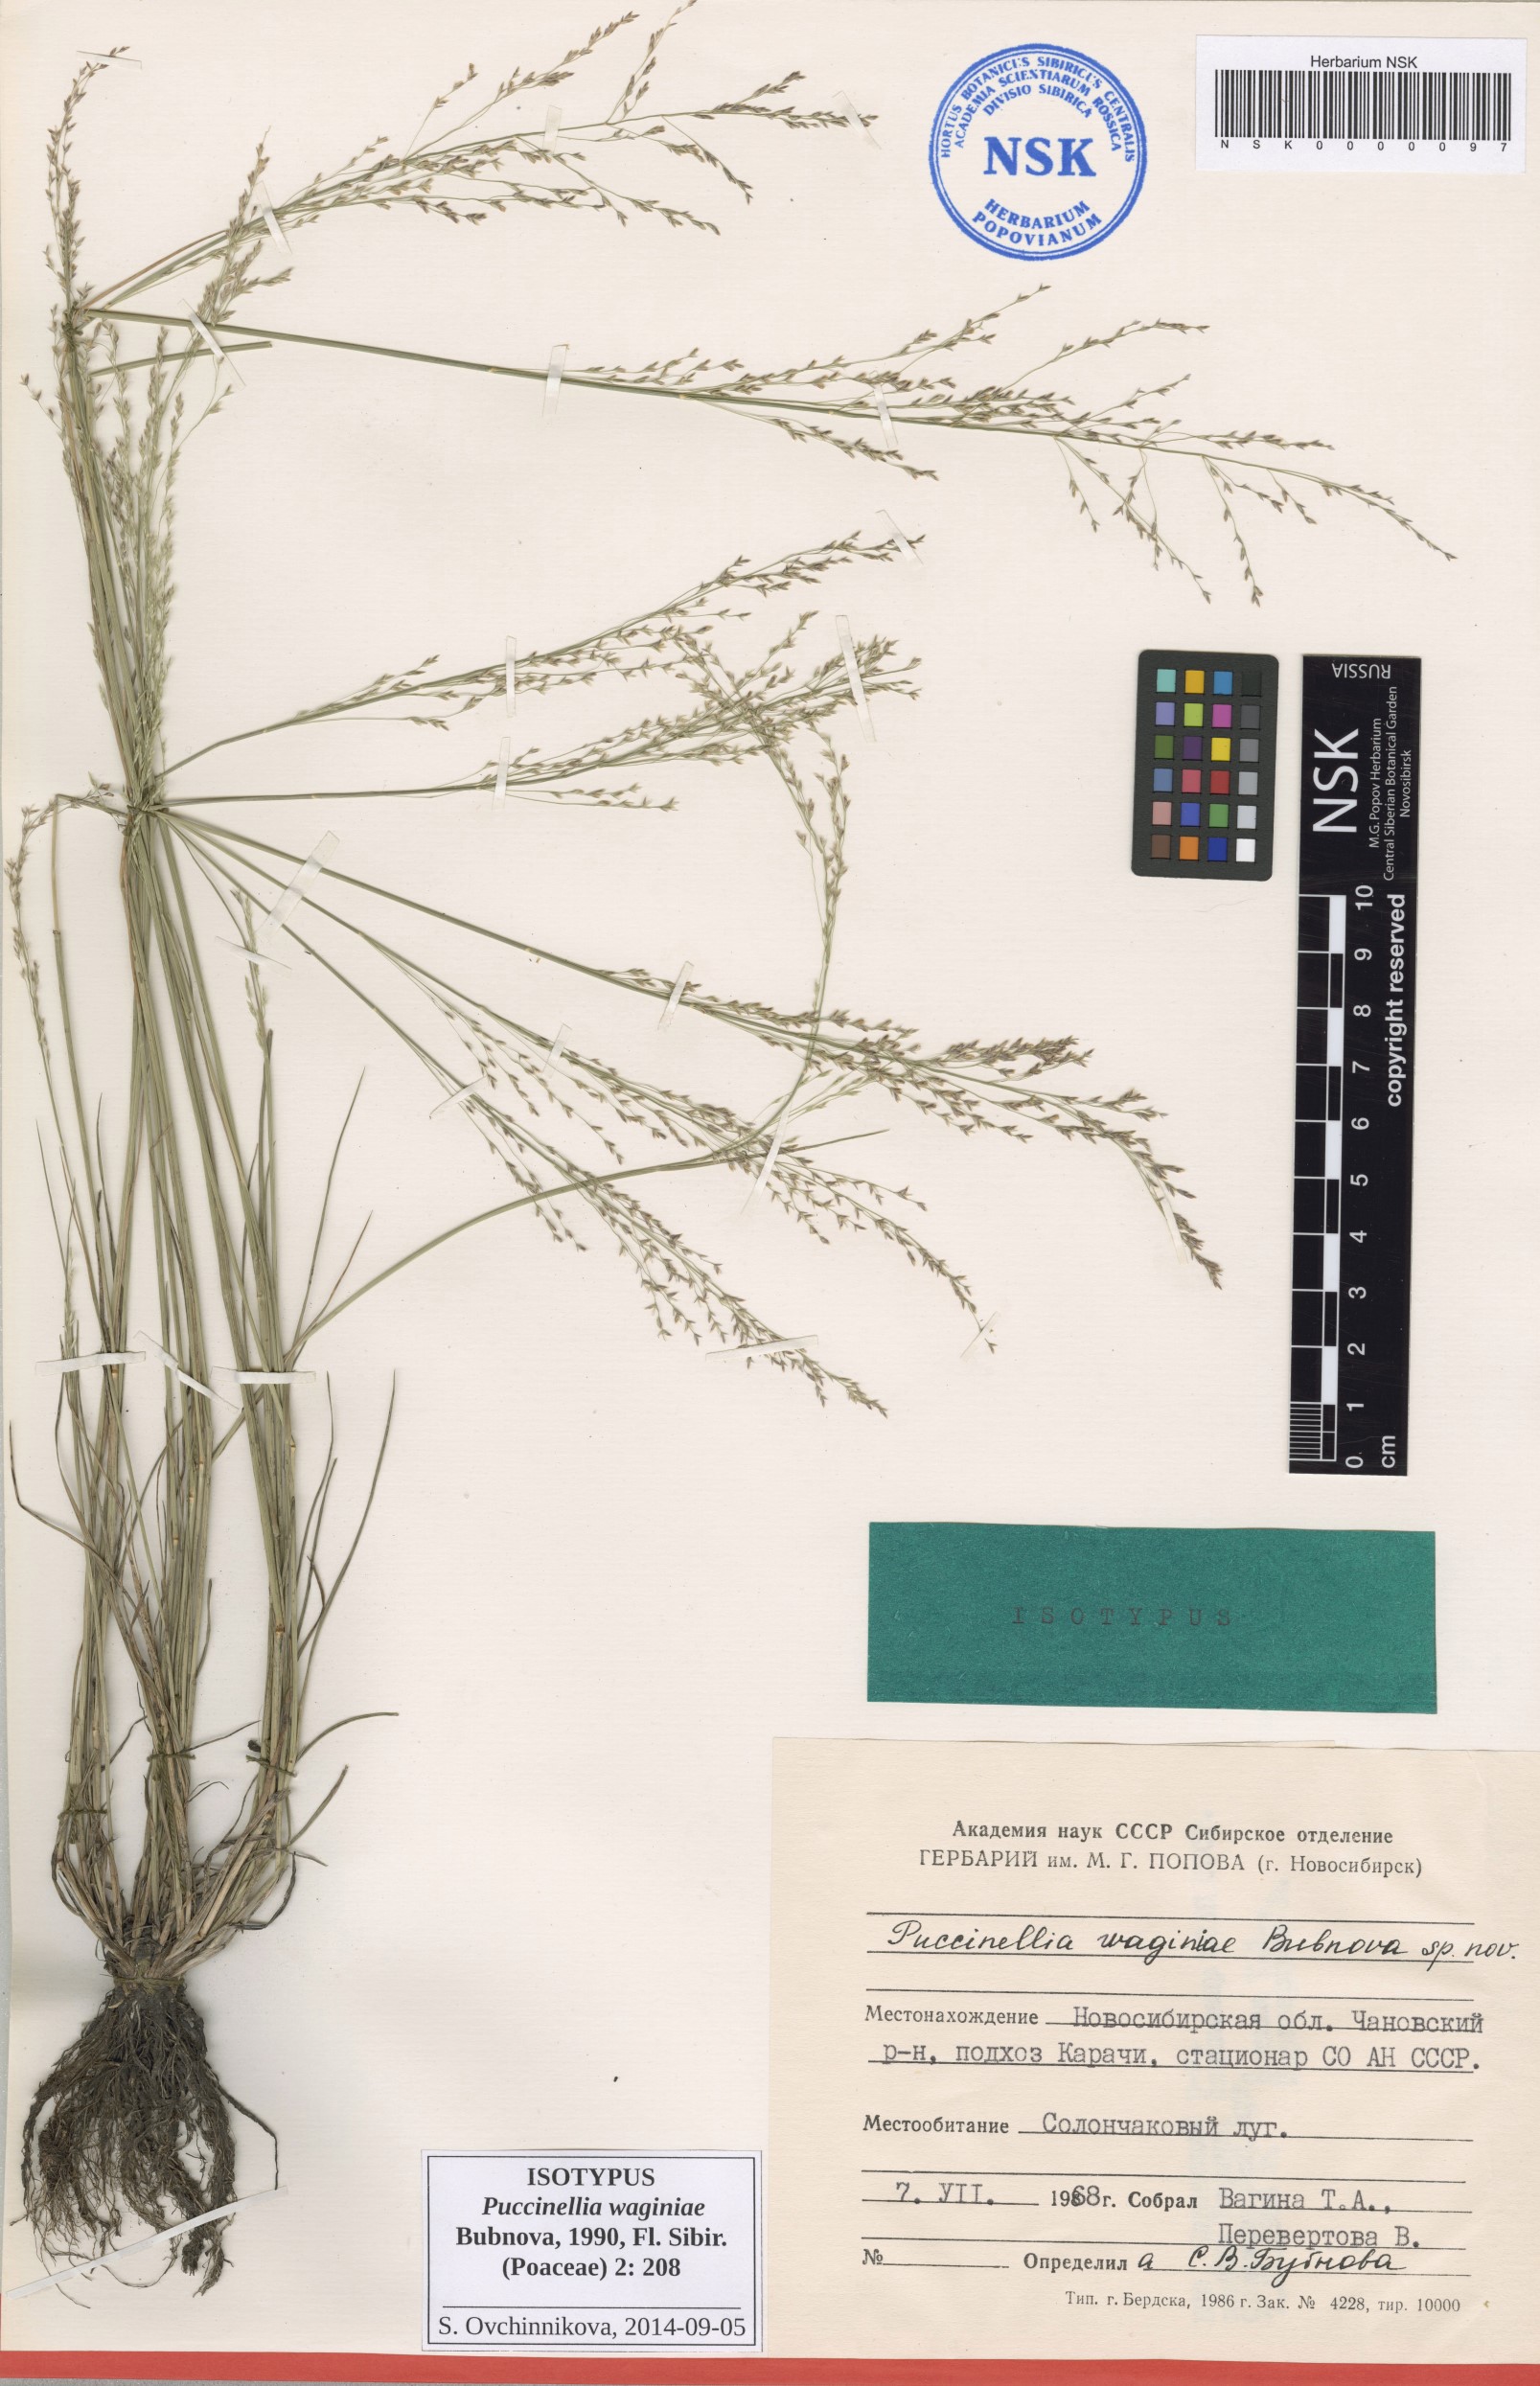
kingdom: Plantae
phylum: Tracheophyta
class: Liliopsida
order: Poales
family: Poaceae
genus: Puccinellia
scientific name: Puccinellia gigantea
